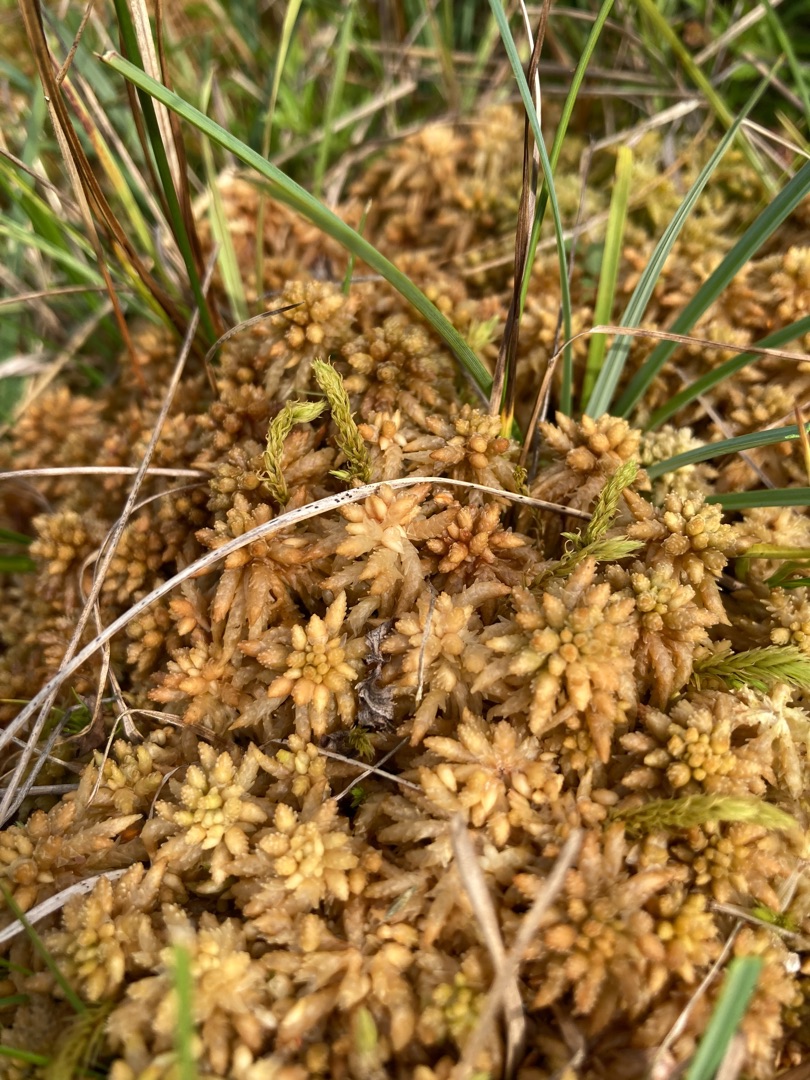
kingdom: Plantae
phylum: Bryophyta
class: Sphagnopsida
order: Sphagnales
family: Sphagnaceae
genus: Sphagnum
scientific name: Sphagnum
